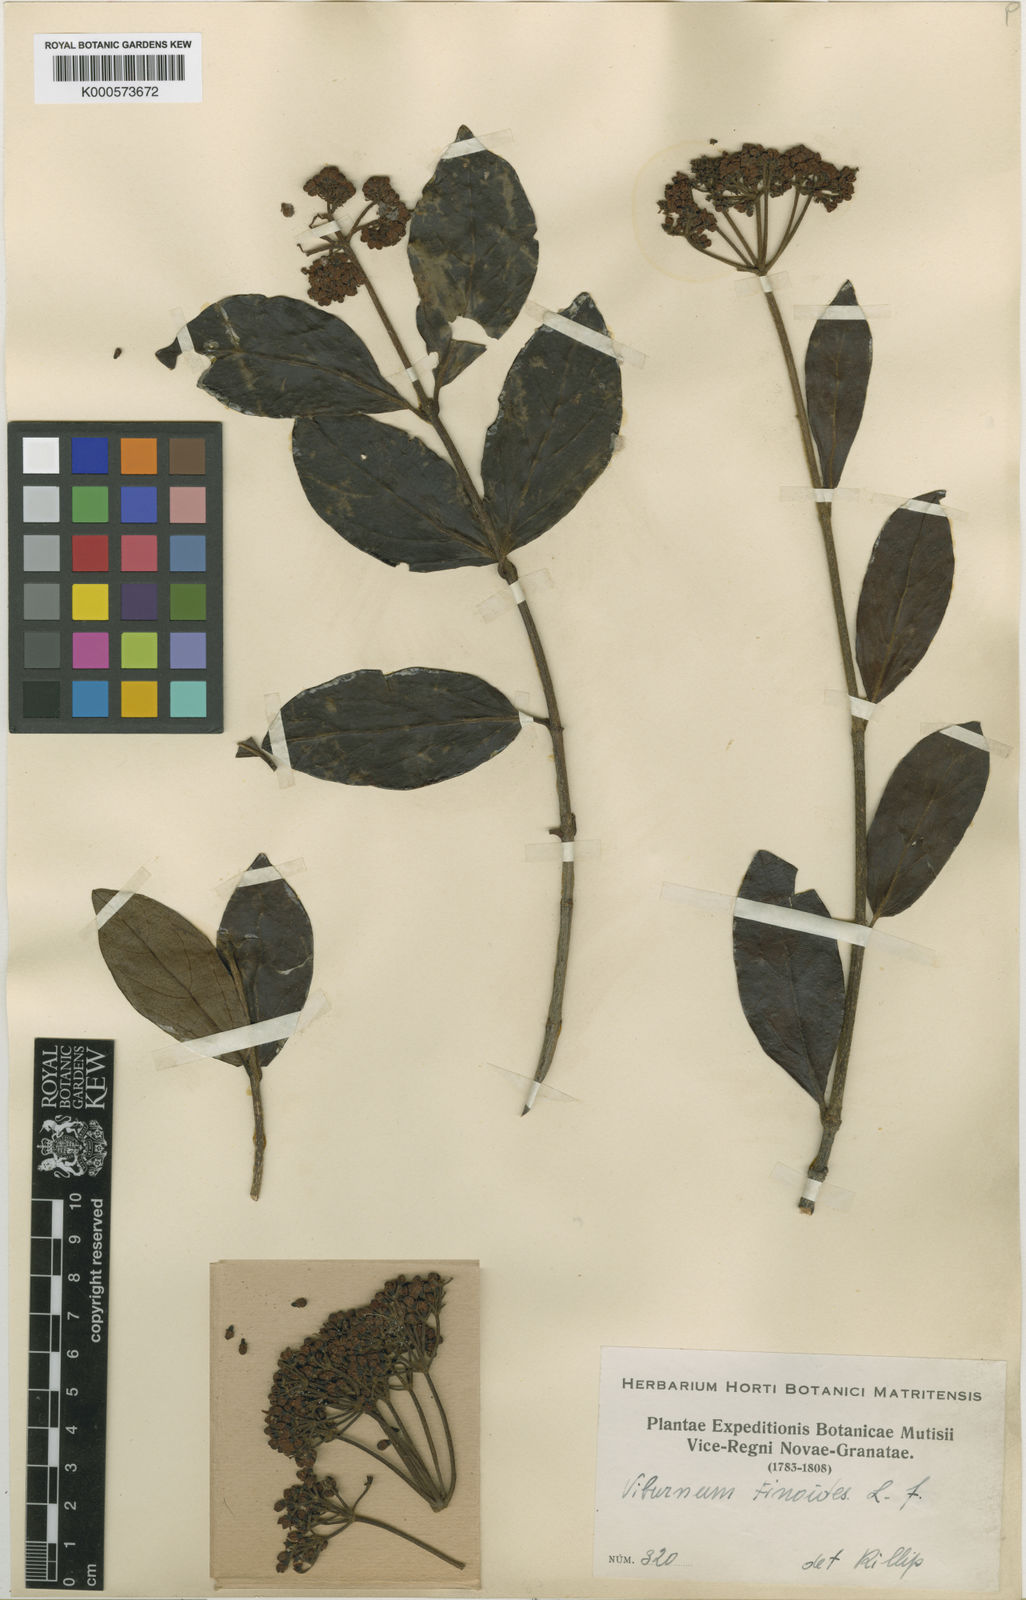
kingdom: Plantae
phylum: Tracheophyta
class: Magnoliopsida
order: Dipsacales
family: Viburnaceae
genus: Viburnum
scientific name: Viburnum tinoides
